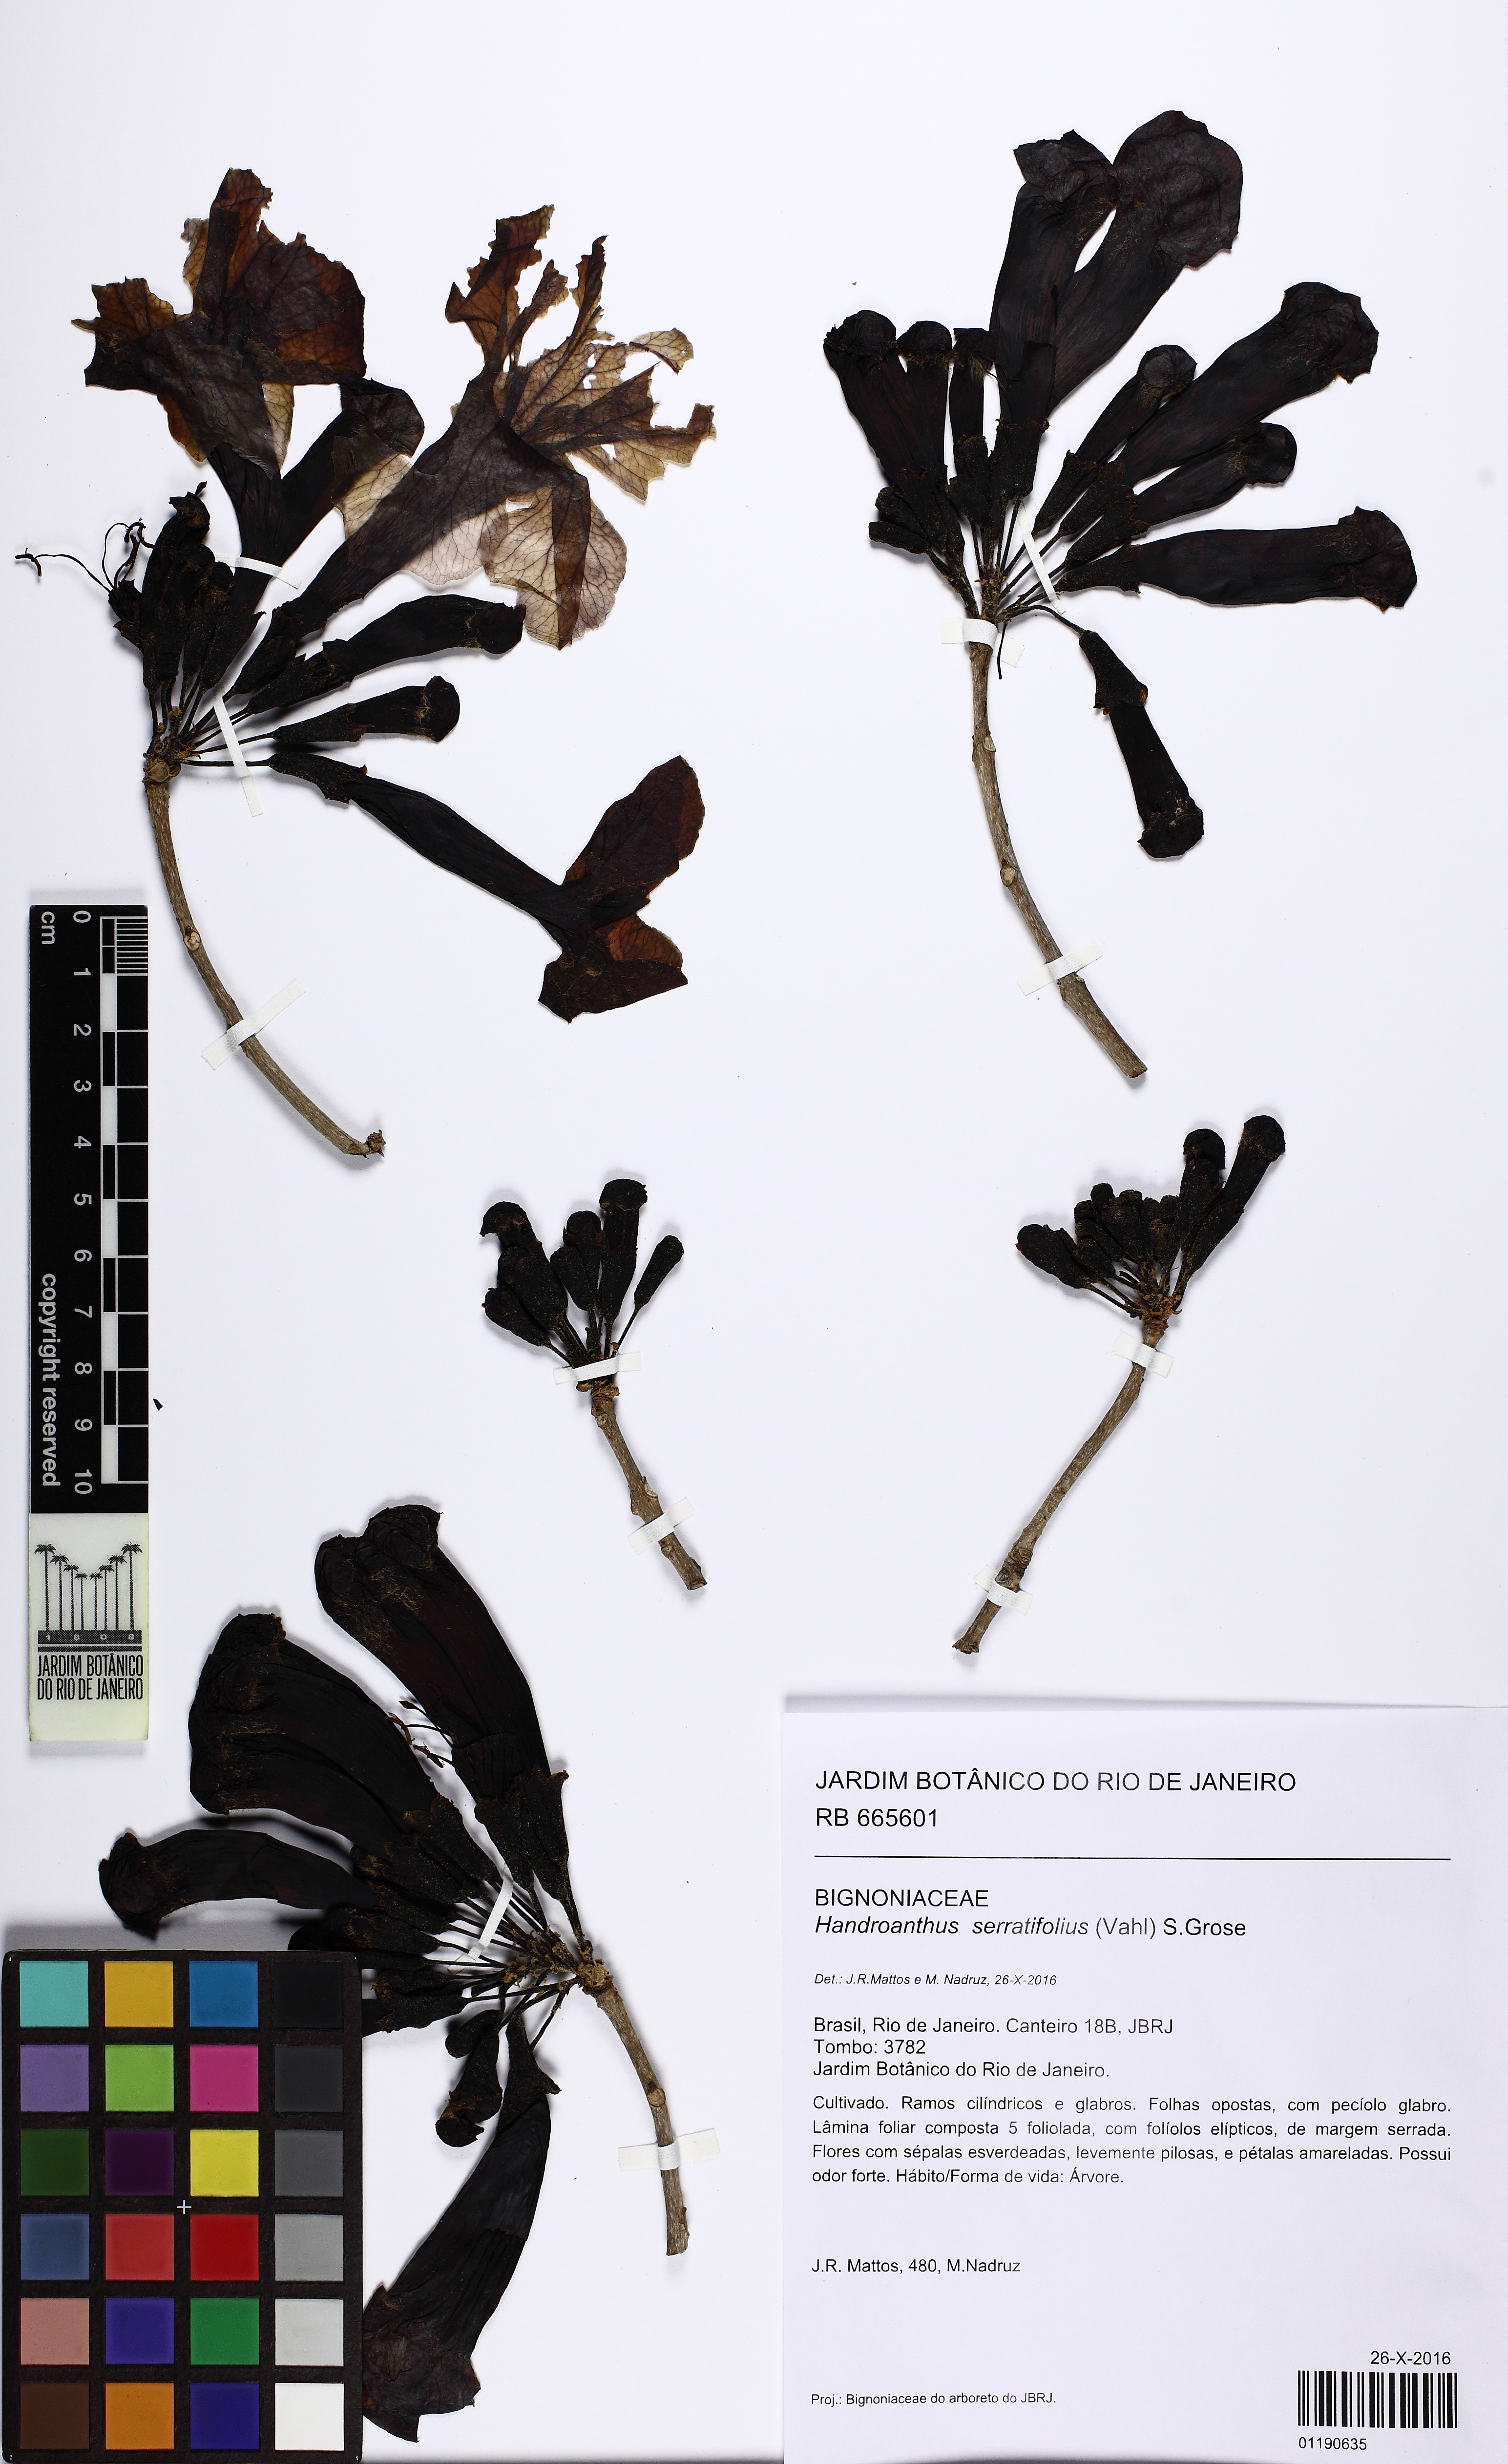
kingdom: Plantae
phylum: Tracheophyta
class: Magnoliopsida
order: Lamiales
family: Bignoniaceae
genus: Handroanthus
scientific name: Handroanthus serratifolius
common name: Yellow ipe
